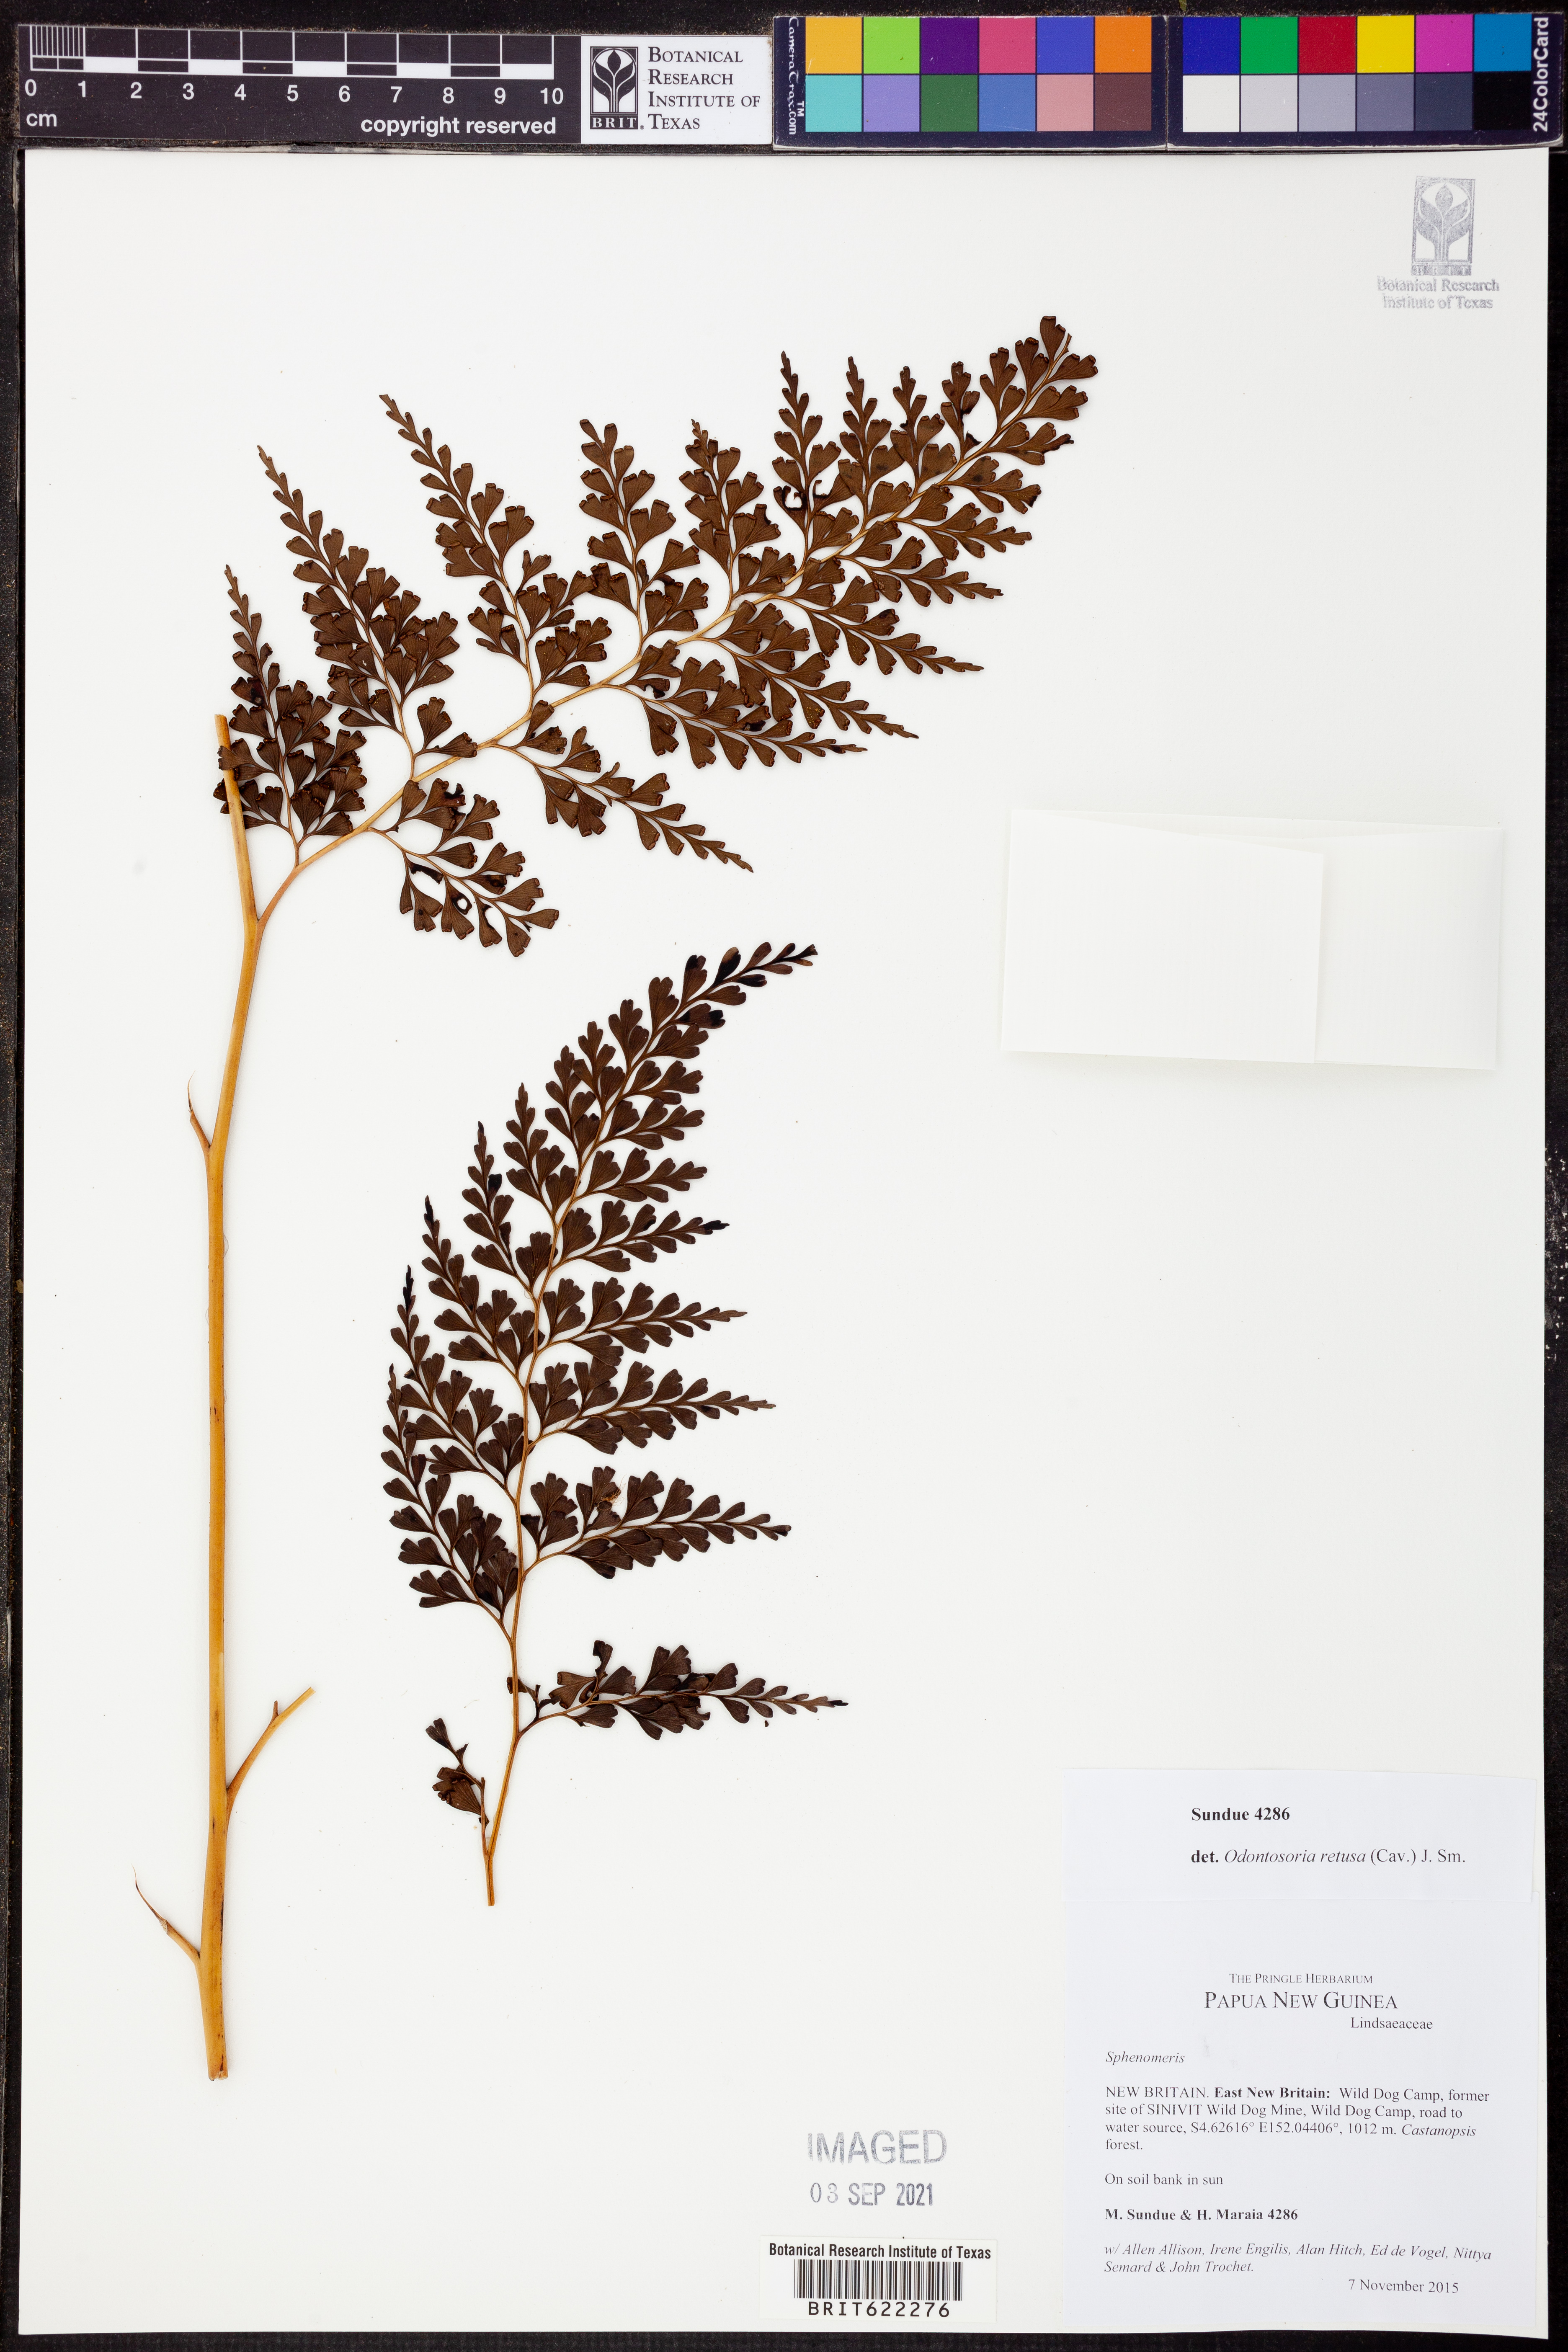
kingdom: Plantae
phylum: Tracheophyta
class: Polypodiopsida
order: Polypodiales
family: Lindsaeaceae
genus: Odontosoria
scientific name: Odontosoria retusa
